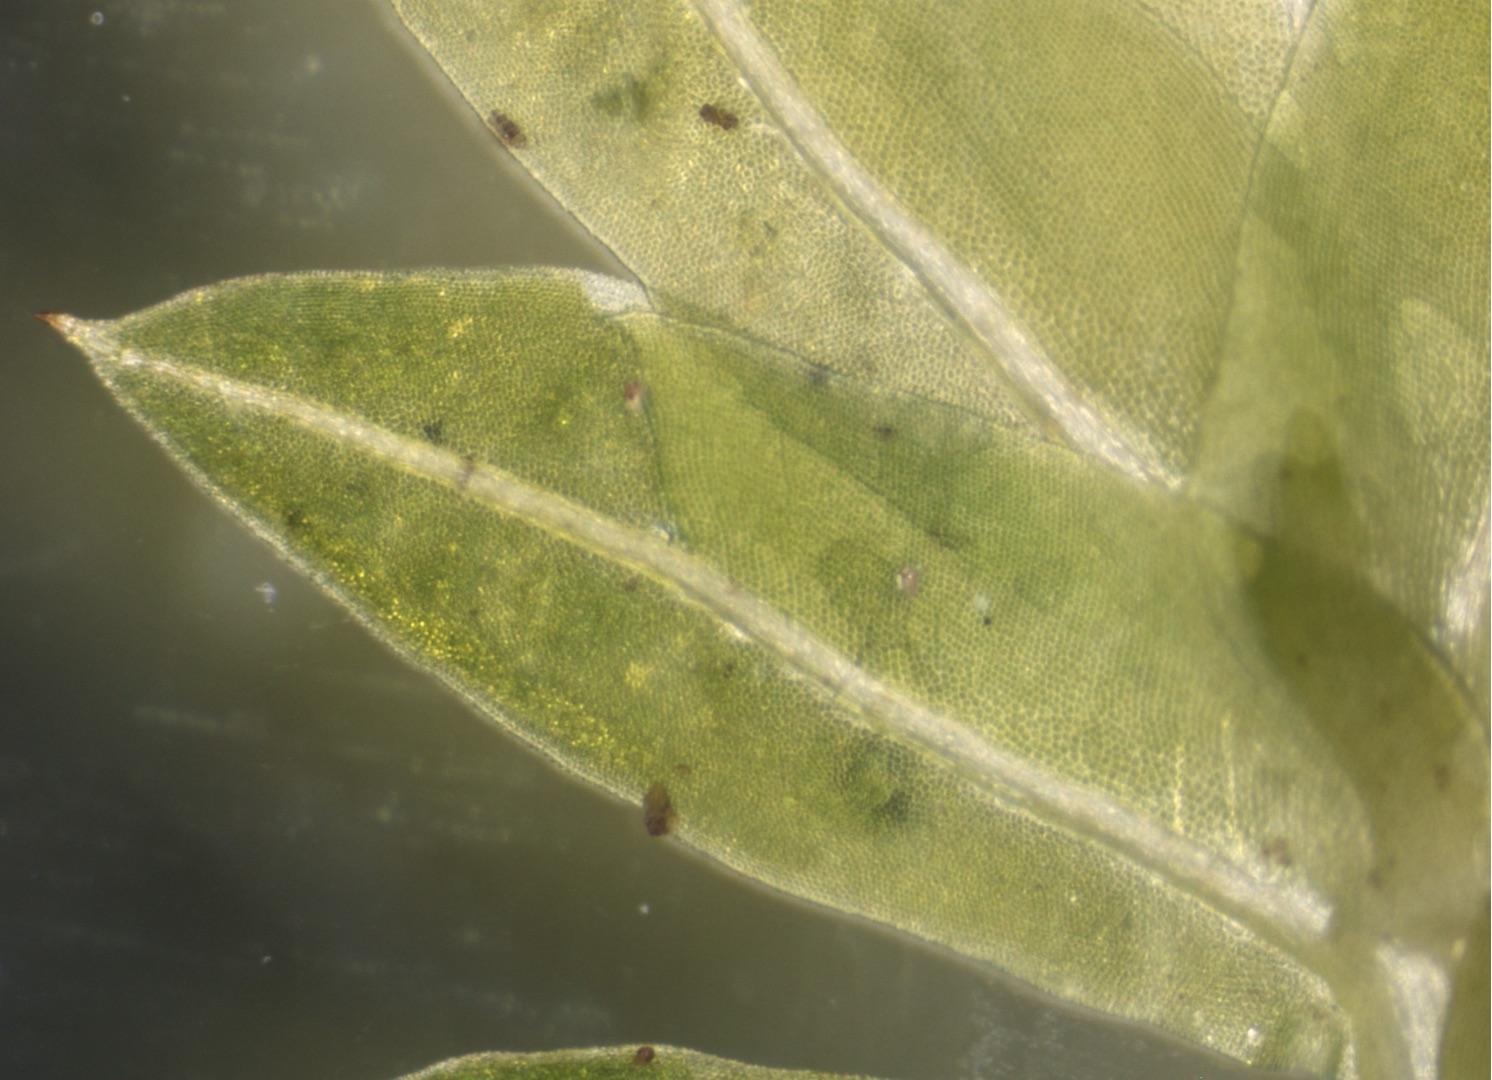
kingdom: Plantae
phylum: Bryophyta
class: Bryopsida
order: Dicranales
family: Fissidentaceae
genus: Fissidens
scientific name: Fissidens taxifolius
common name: Taksbladet rademos
